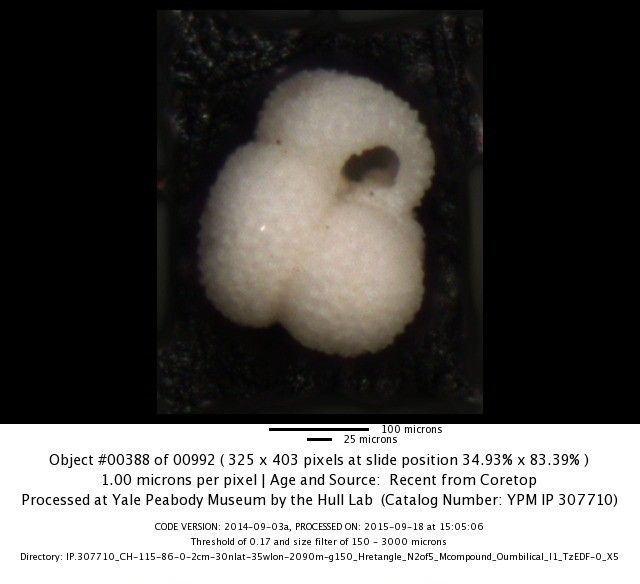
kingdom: Chromista
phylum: Foraminifera
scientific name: Foraminifera
